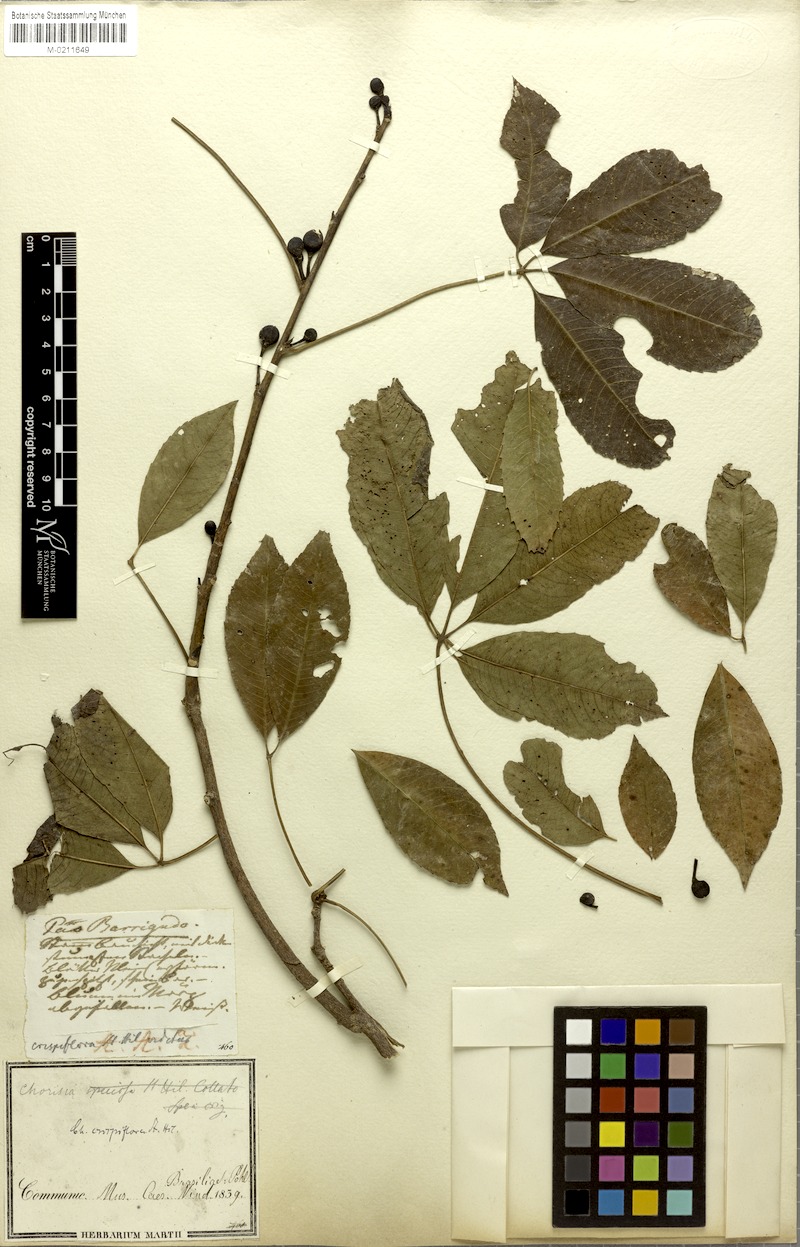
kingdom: Plantae
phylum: Tracheophyta
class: Magnoliopsida
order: Malvales
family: Malvaceae
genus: Ceiba
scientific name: Ceiba crispiflora
